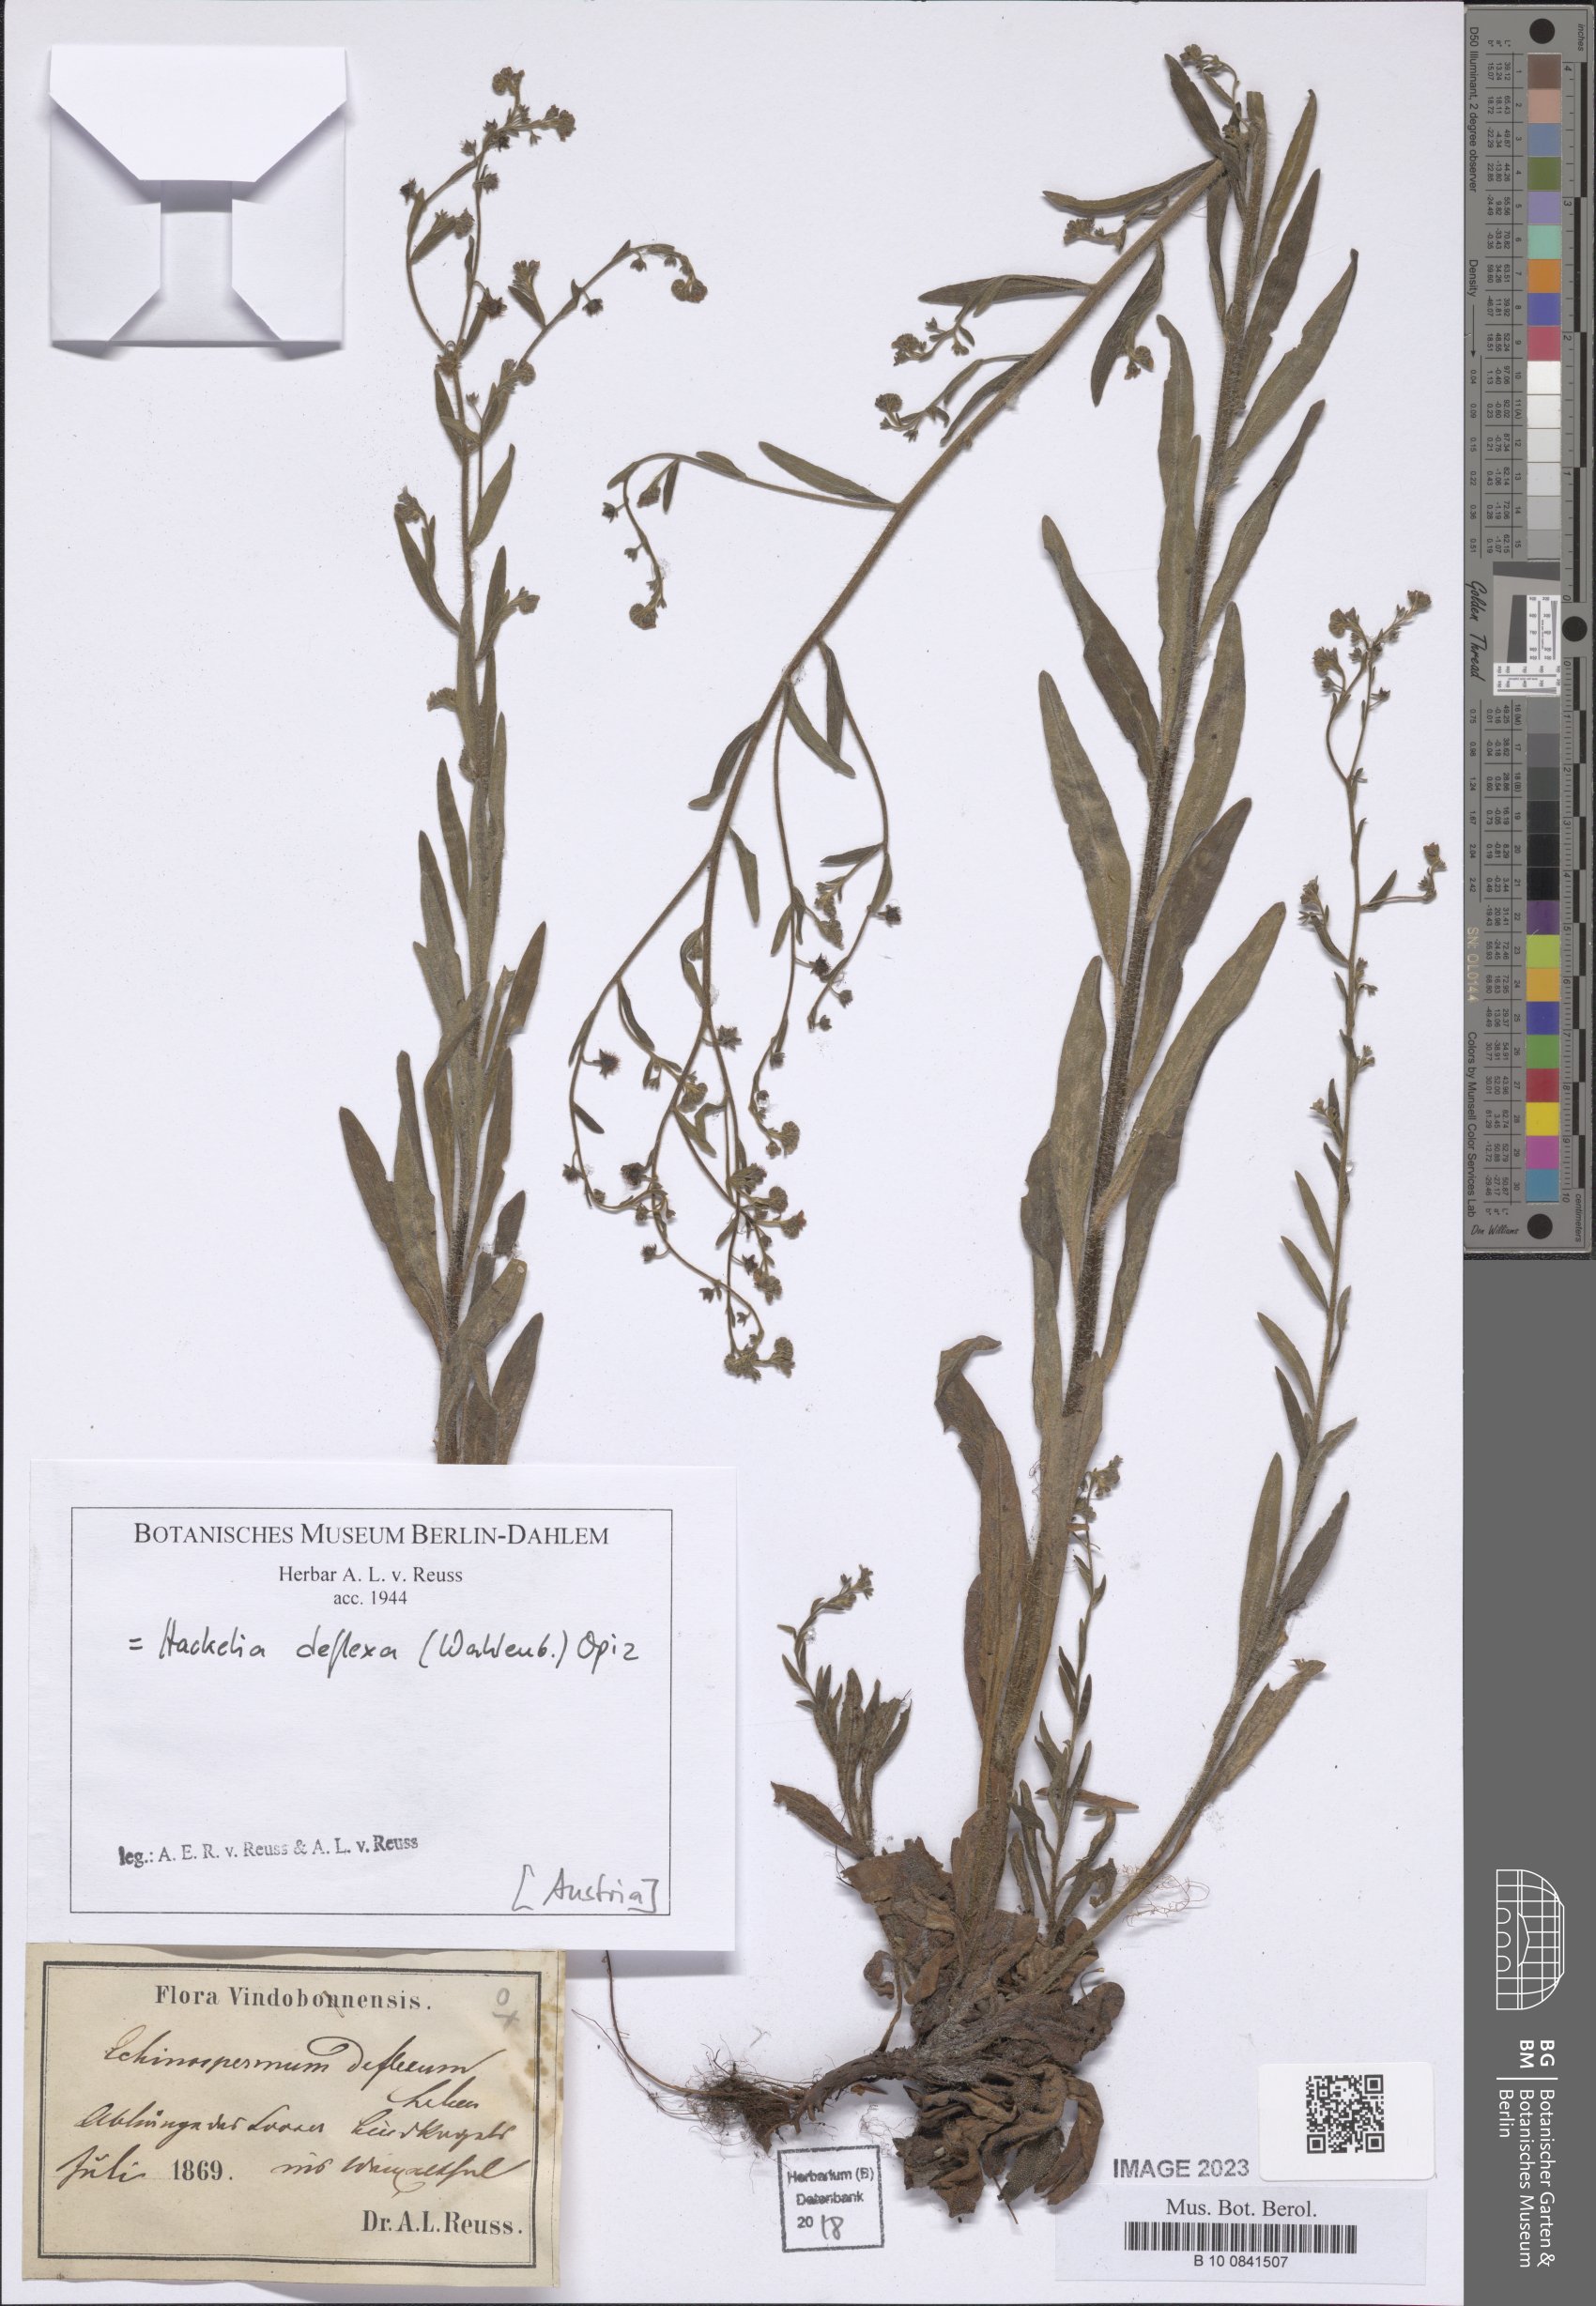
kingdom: Plantae
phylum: Tracheophyta
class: Magnoliopsida
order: Boraginales
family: Boraginaceae
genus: Hackelia
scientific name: Hackelia deflexa
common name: Nodding stickseed
